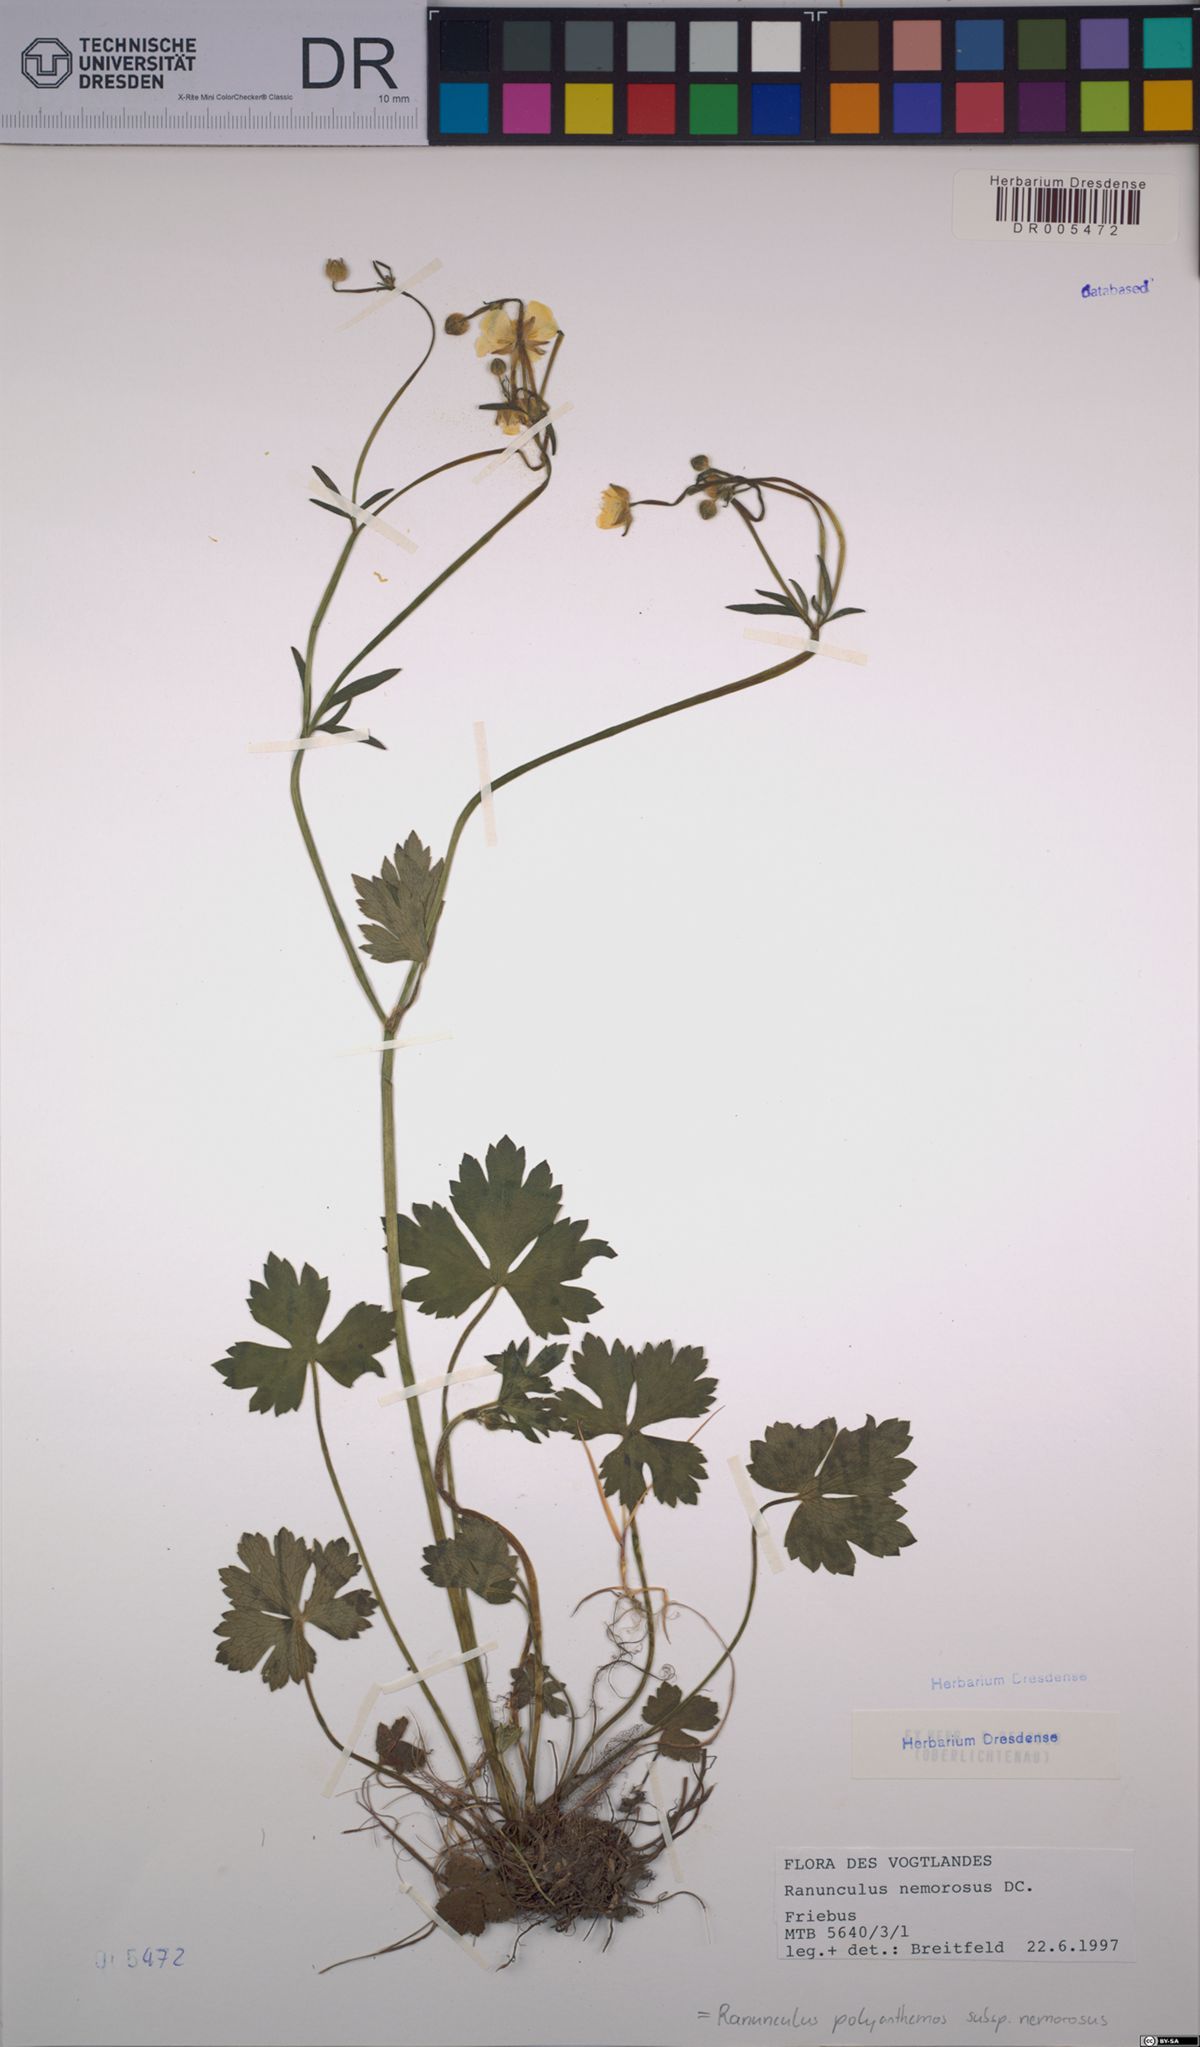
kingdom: Plantae
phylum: Tracheophyta
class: Magnoliopsida
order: Ranunculales
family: Ranunculaceae
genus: Ranunculus
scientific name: Ranunculus polyanthemos
